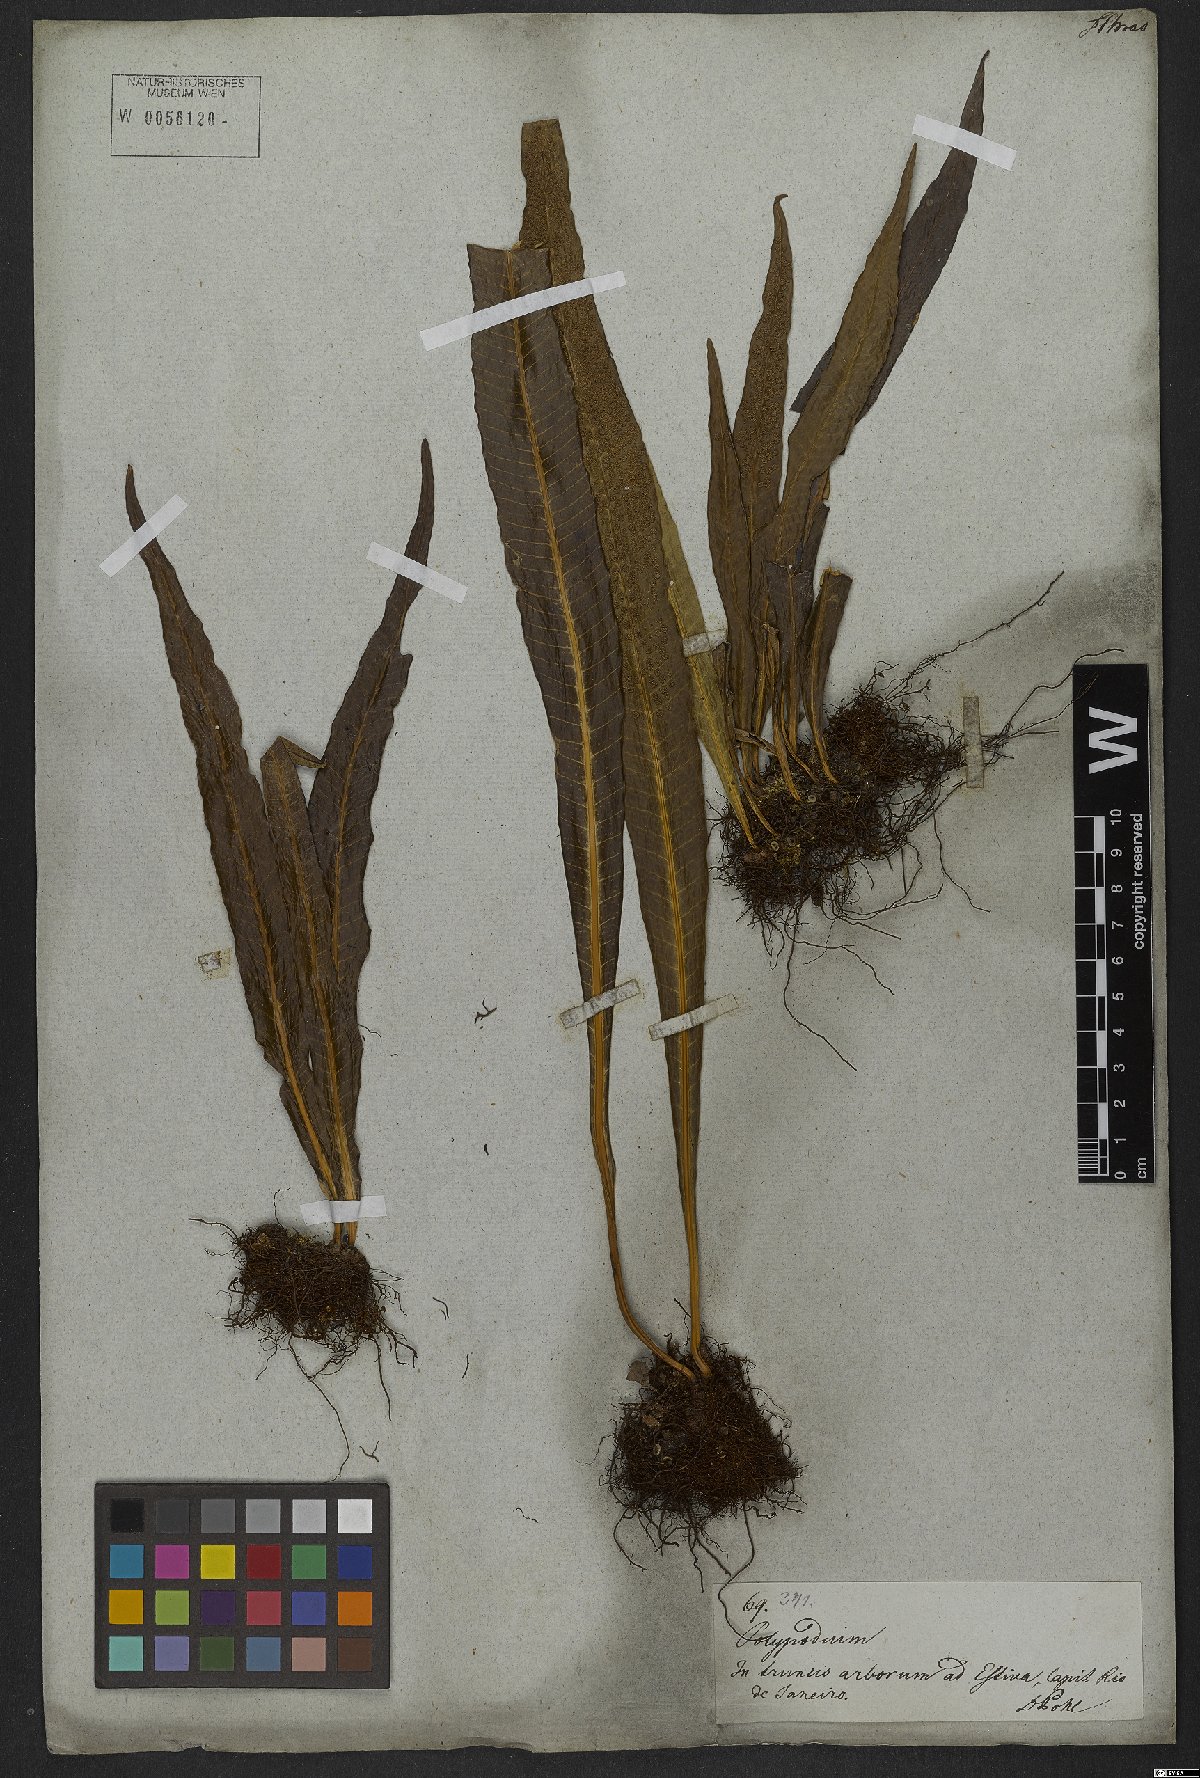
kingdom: Plantae
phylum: Tracheophyta
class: Polypodiopsida
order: Polypodiales
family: Polypodiaceae
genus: Campyloneurum
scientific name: Campyloneurum phyllitidis
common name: Cow-tongue fern
